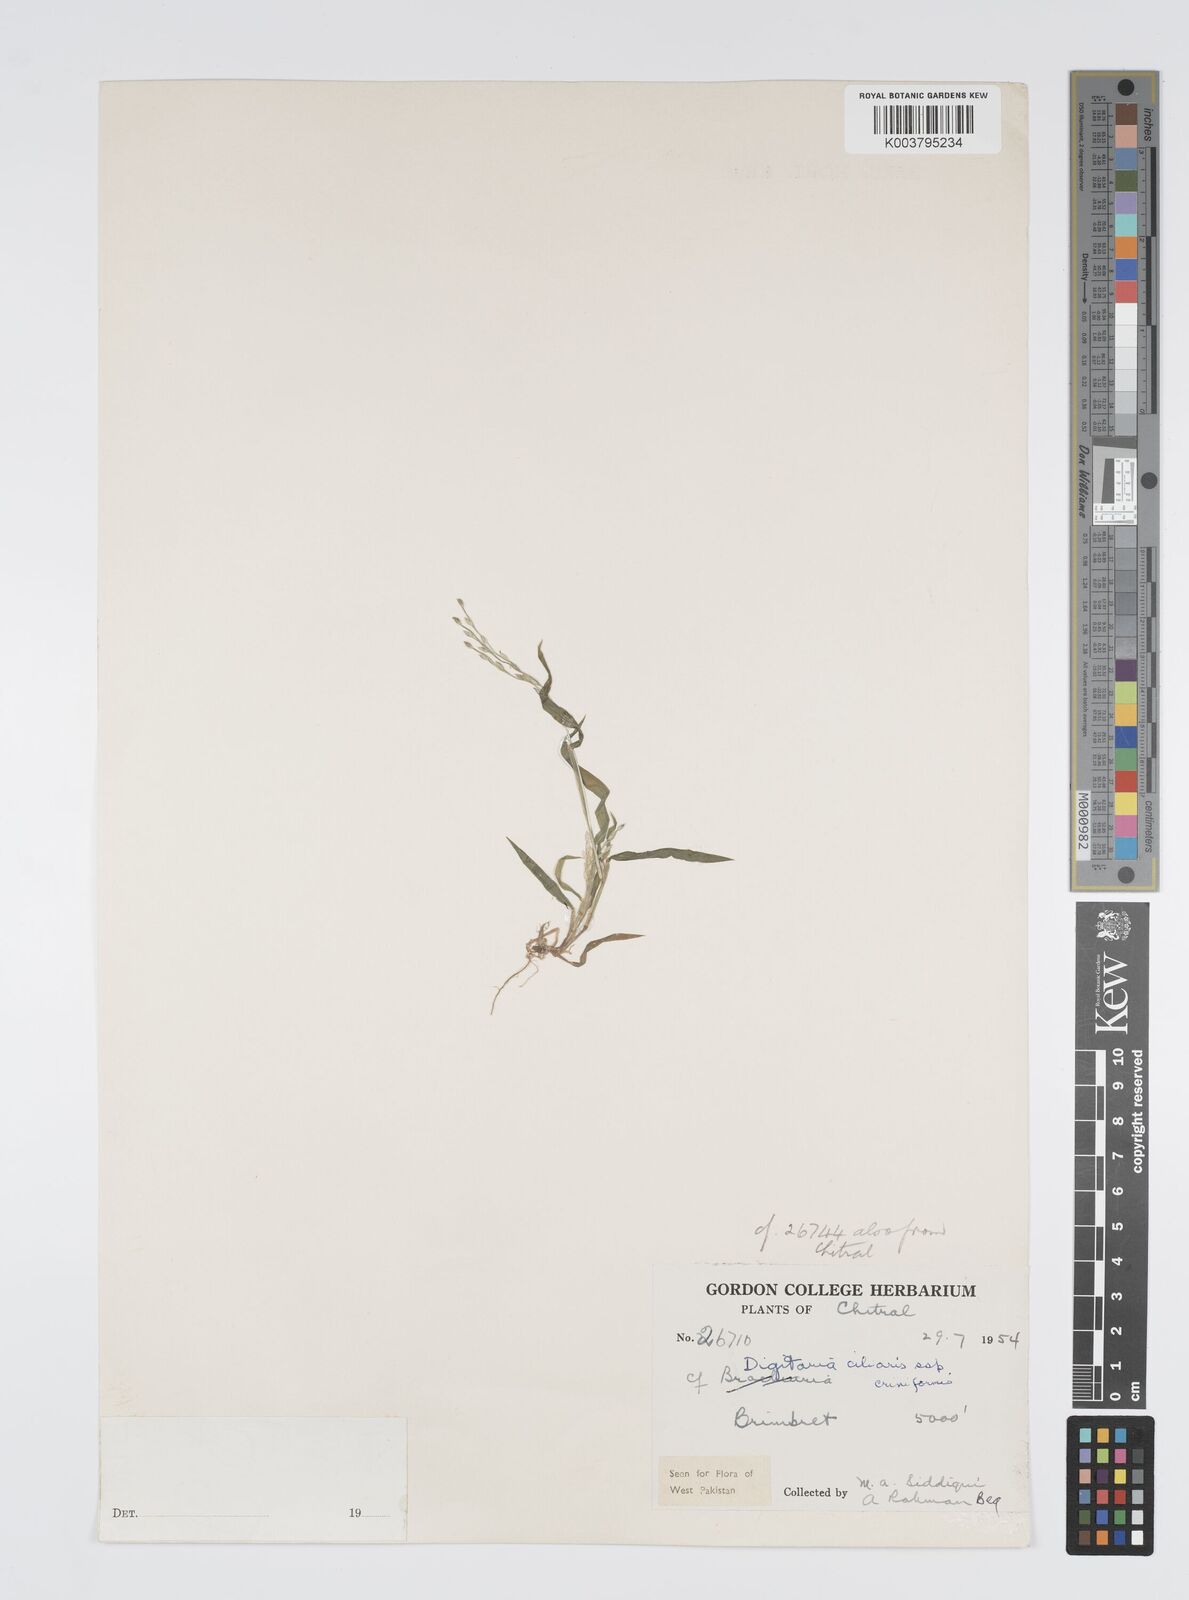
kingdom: Plantae
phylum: Tracheophyta
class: Liliopsida
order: Poales
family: Poaceae
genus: Digitaria
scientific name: Digitaria ciliaris
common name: Tropical finger-grass
